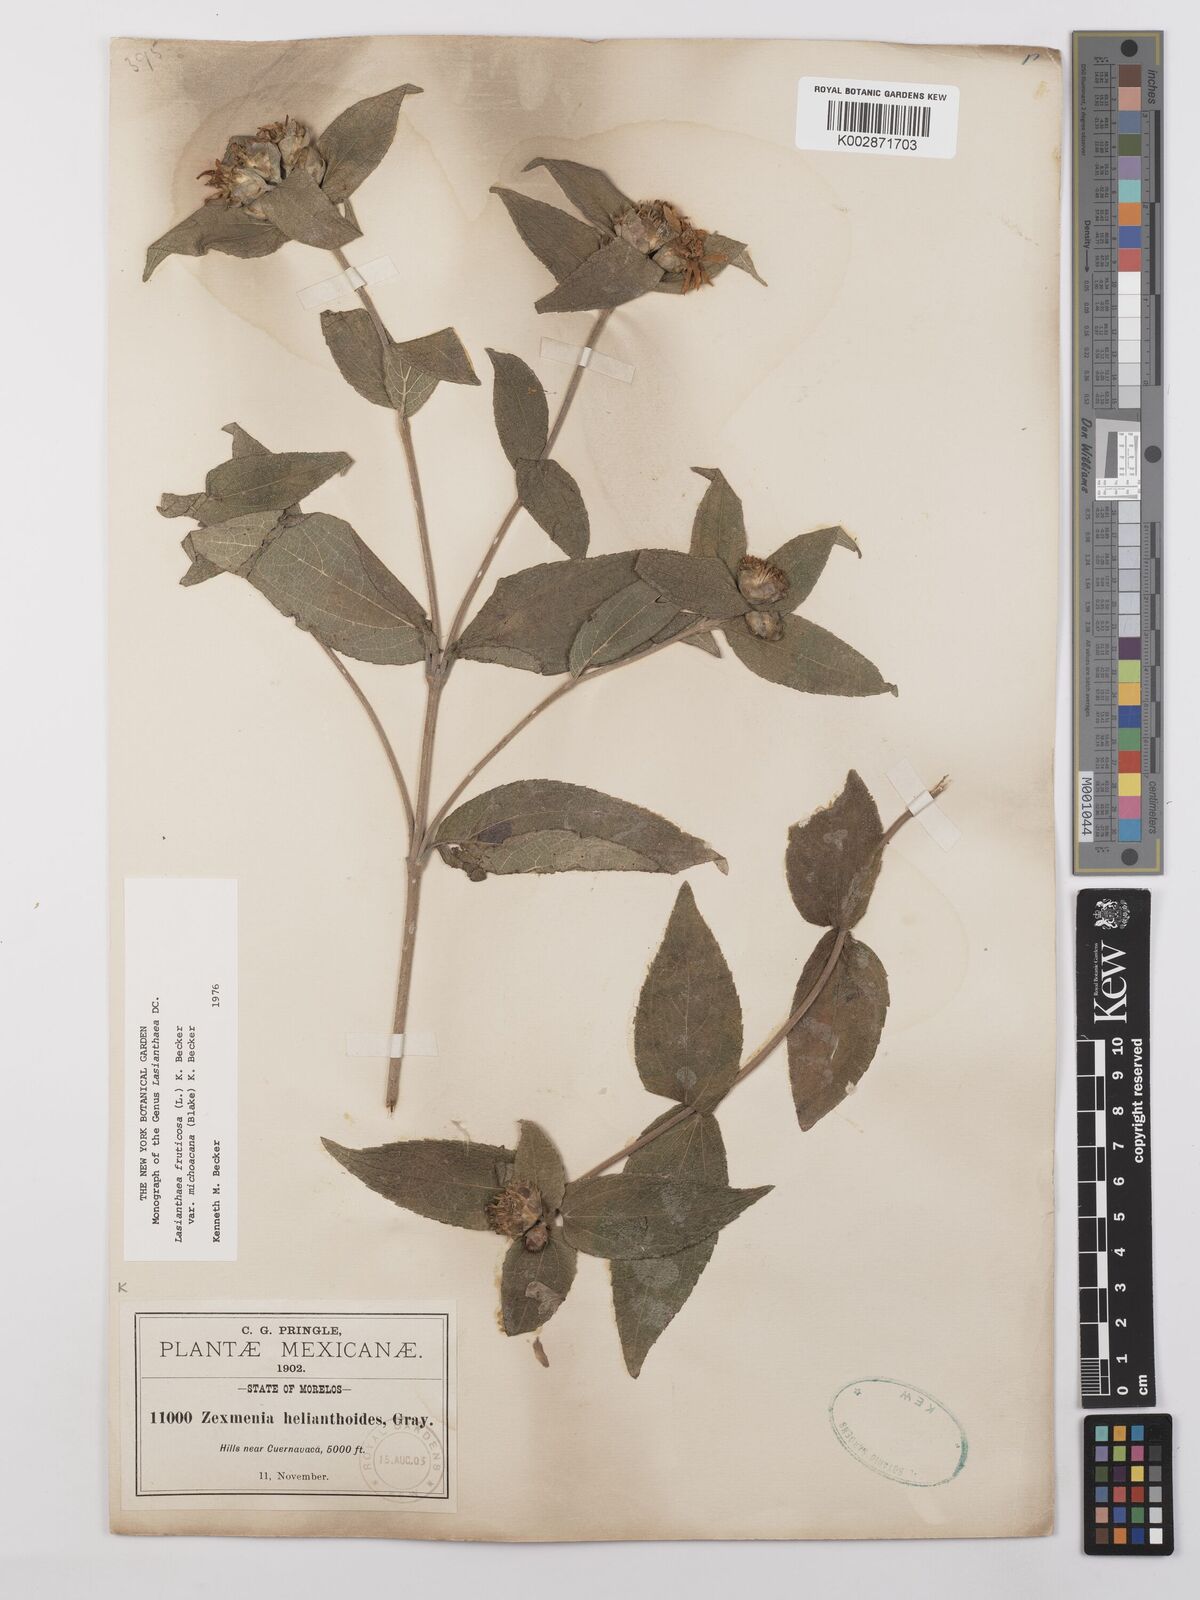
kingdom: Plantae
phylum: Tracheophyta
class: Magnoliopsida
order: Asterales
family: Asteraceae
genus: Lasianthaea
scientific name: Lasianthaea fruticosa
